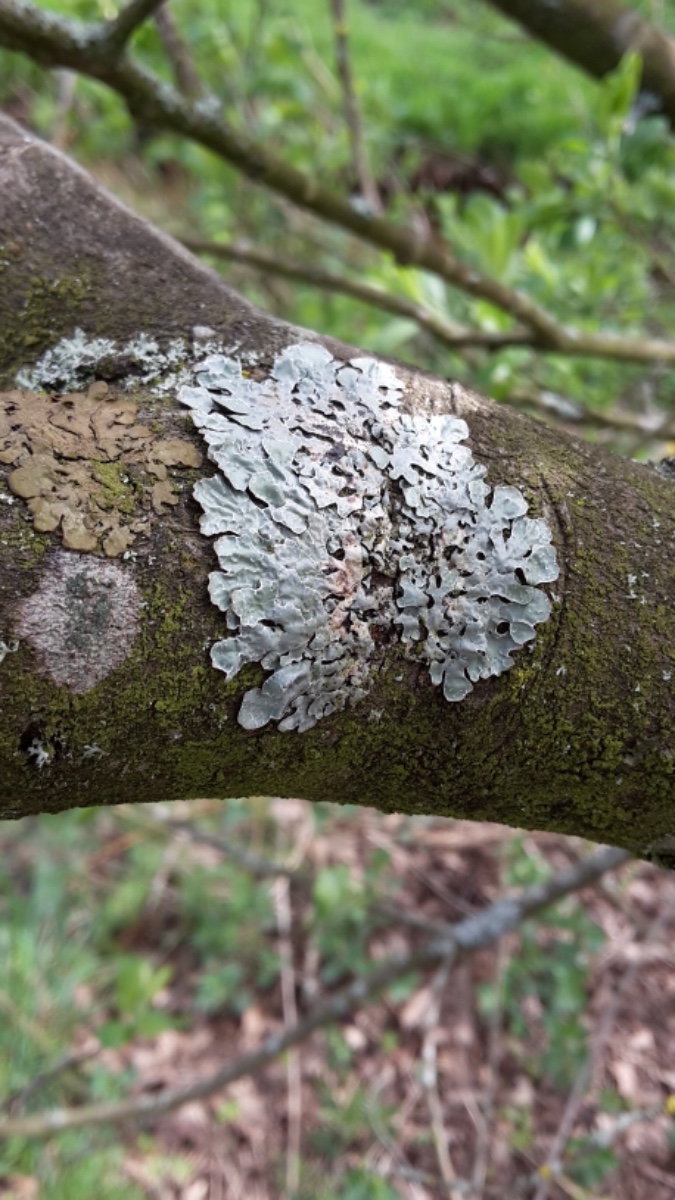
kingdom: Fungi
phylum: Ascomycota
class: Lecanoromycetes
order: Lecanorales
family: Parmeliaceae
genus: Parmelia
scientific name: Parmelia sulcata
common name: rynket skållav
